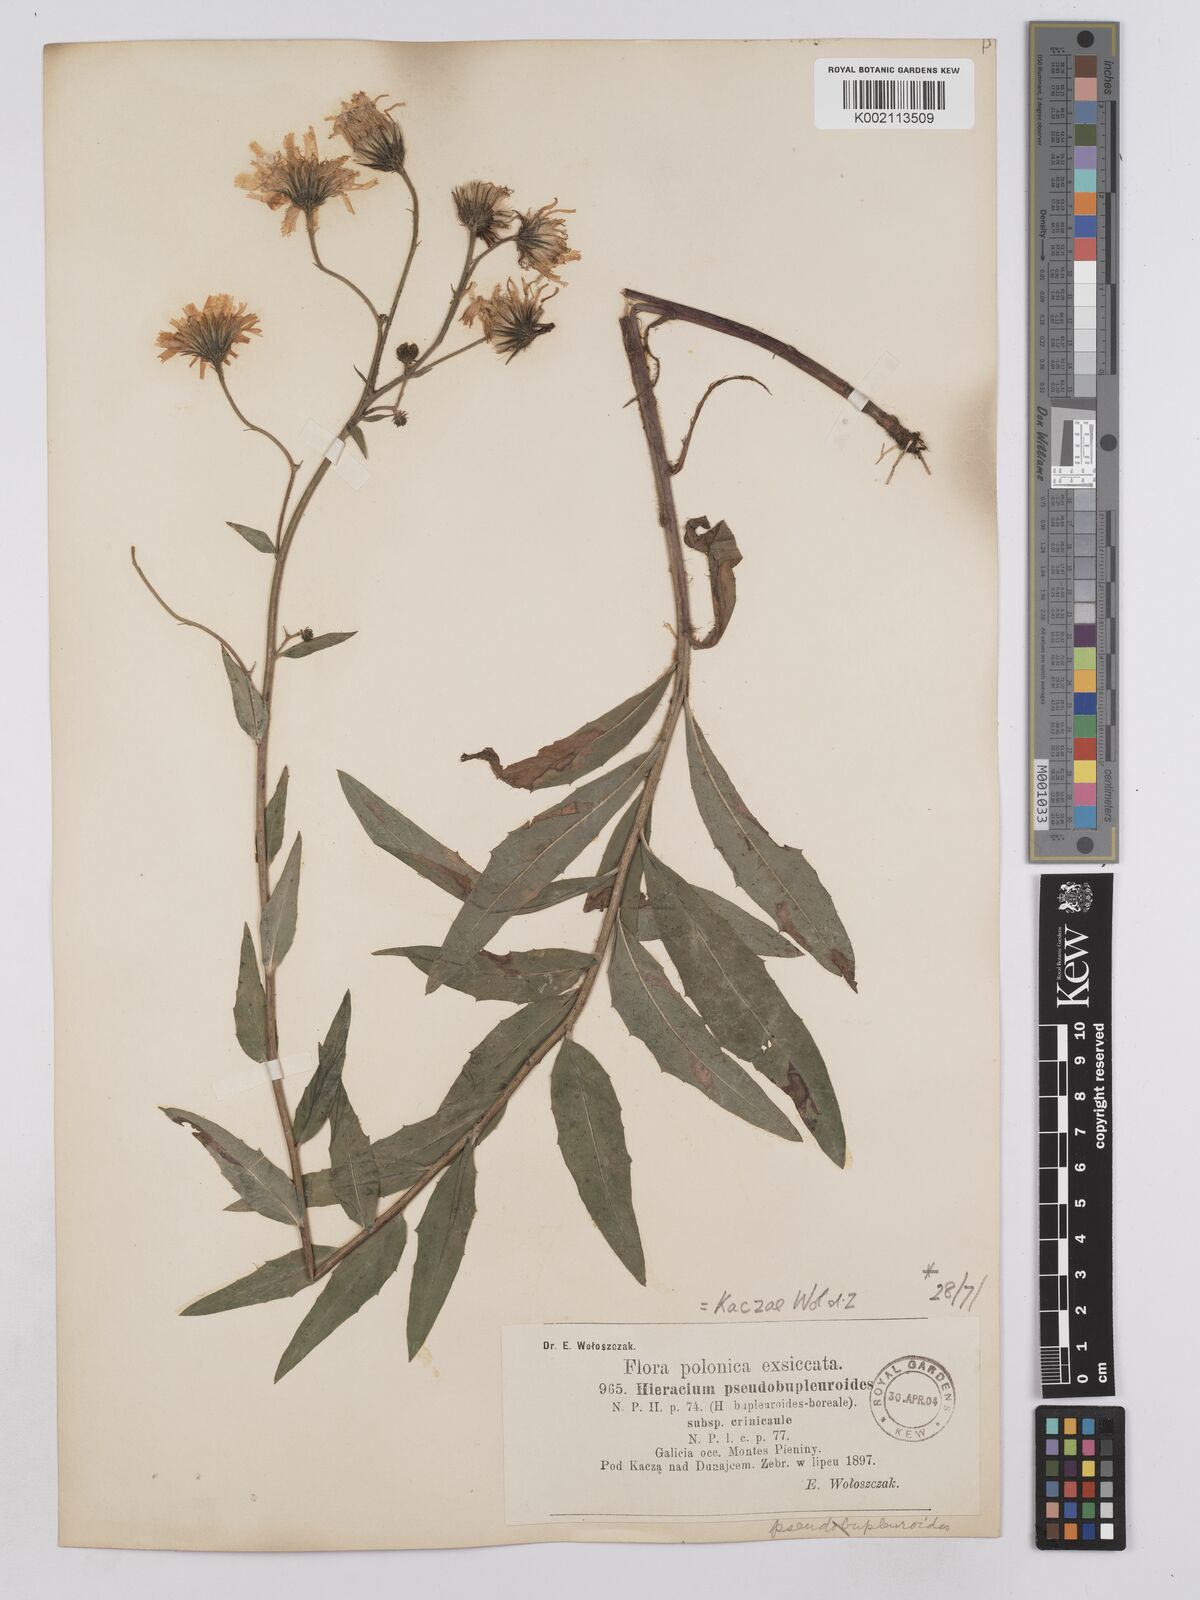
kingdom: Plantae
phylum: Tracheophyta
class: Magnoliopsida
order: Asterales
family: Asteraceae
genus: Hieracium
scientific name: Hieracium virgicaule
